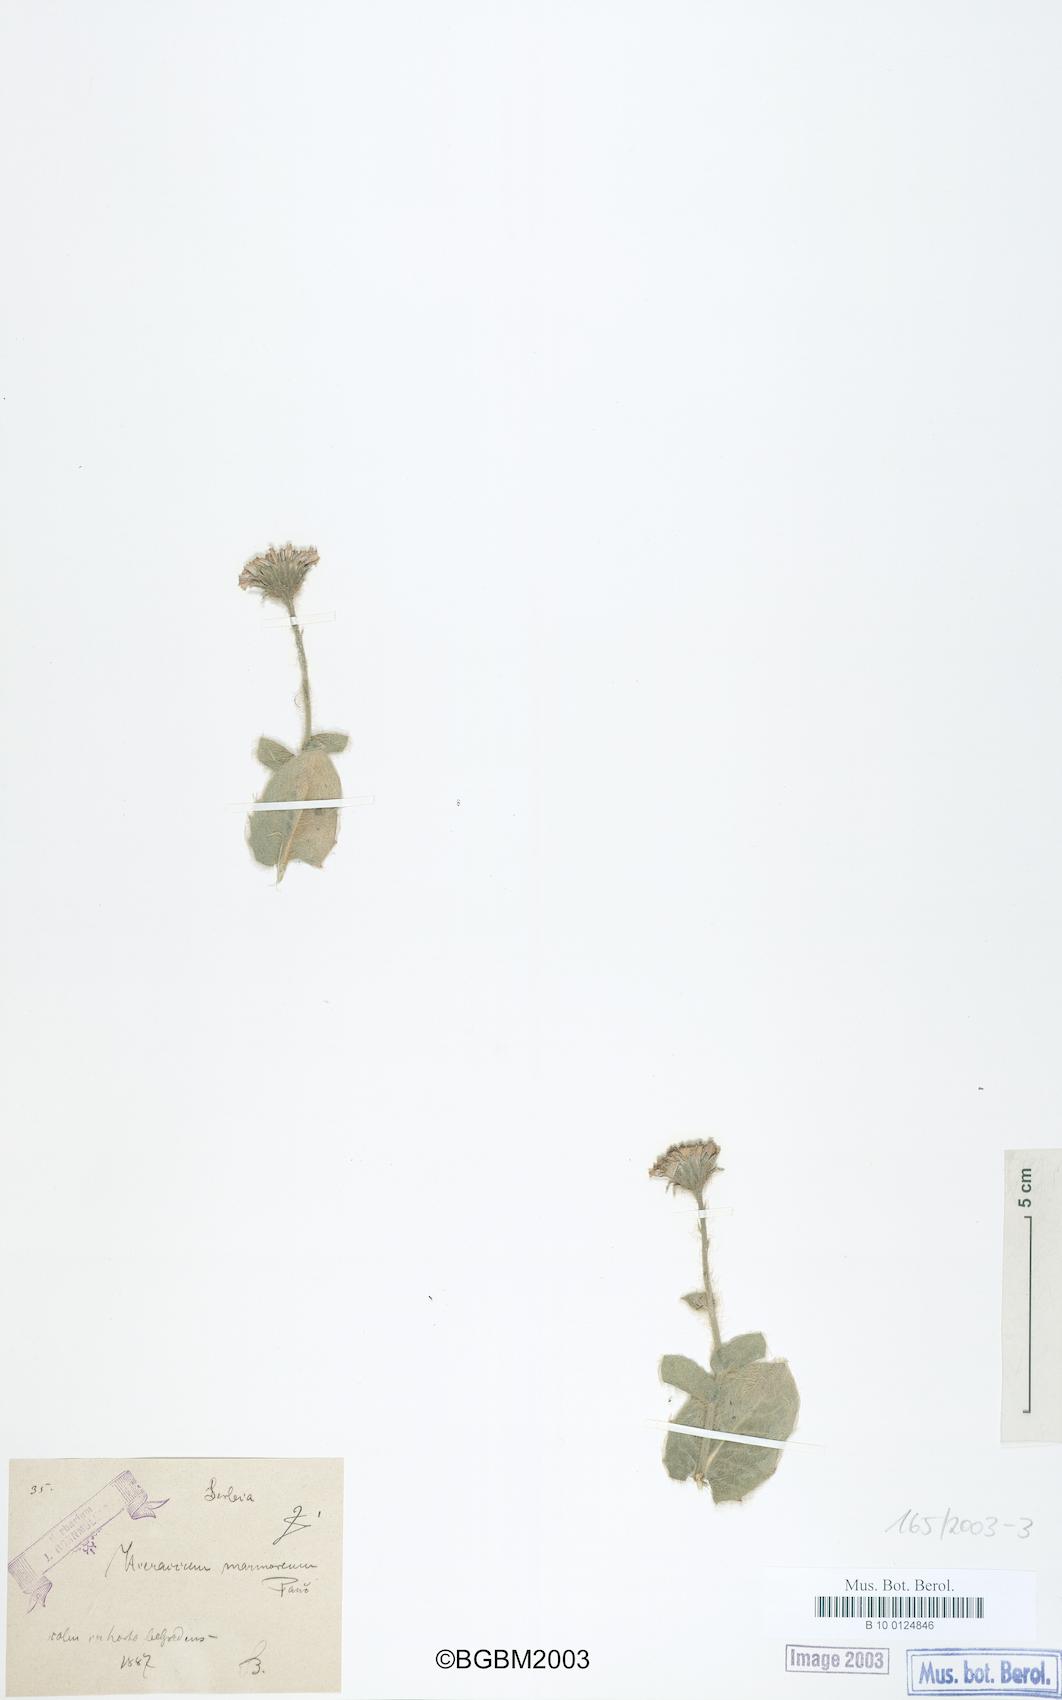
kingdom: Plantae
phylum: Tracheophyta
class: Magnoliopsida
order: Asterales
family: Asteraceae
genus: Hieracium
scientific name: Hieracium marmoreum
